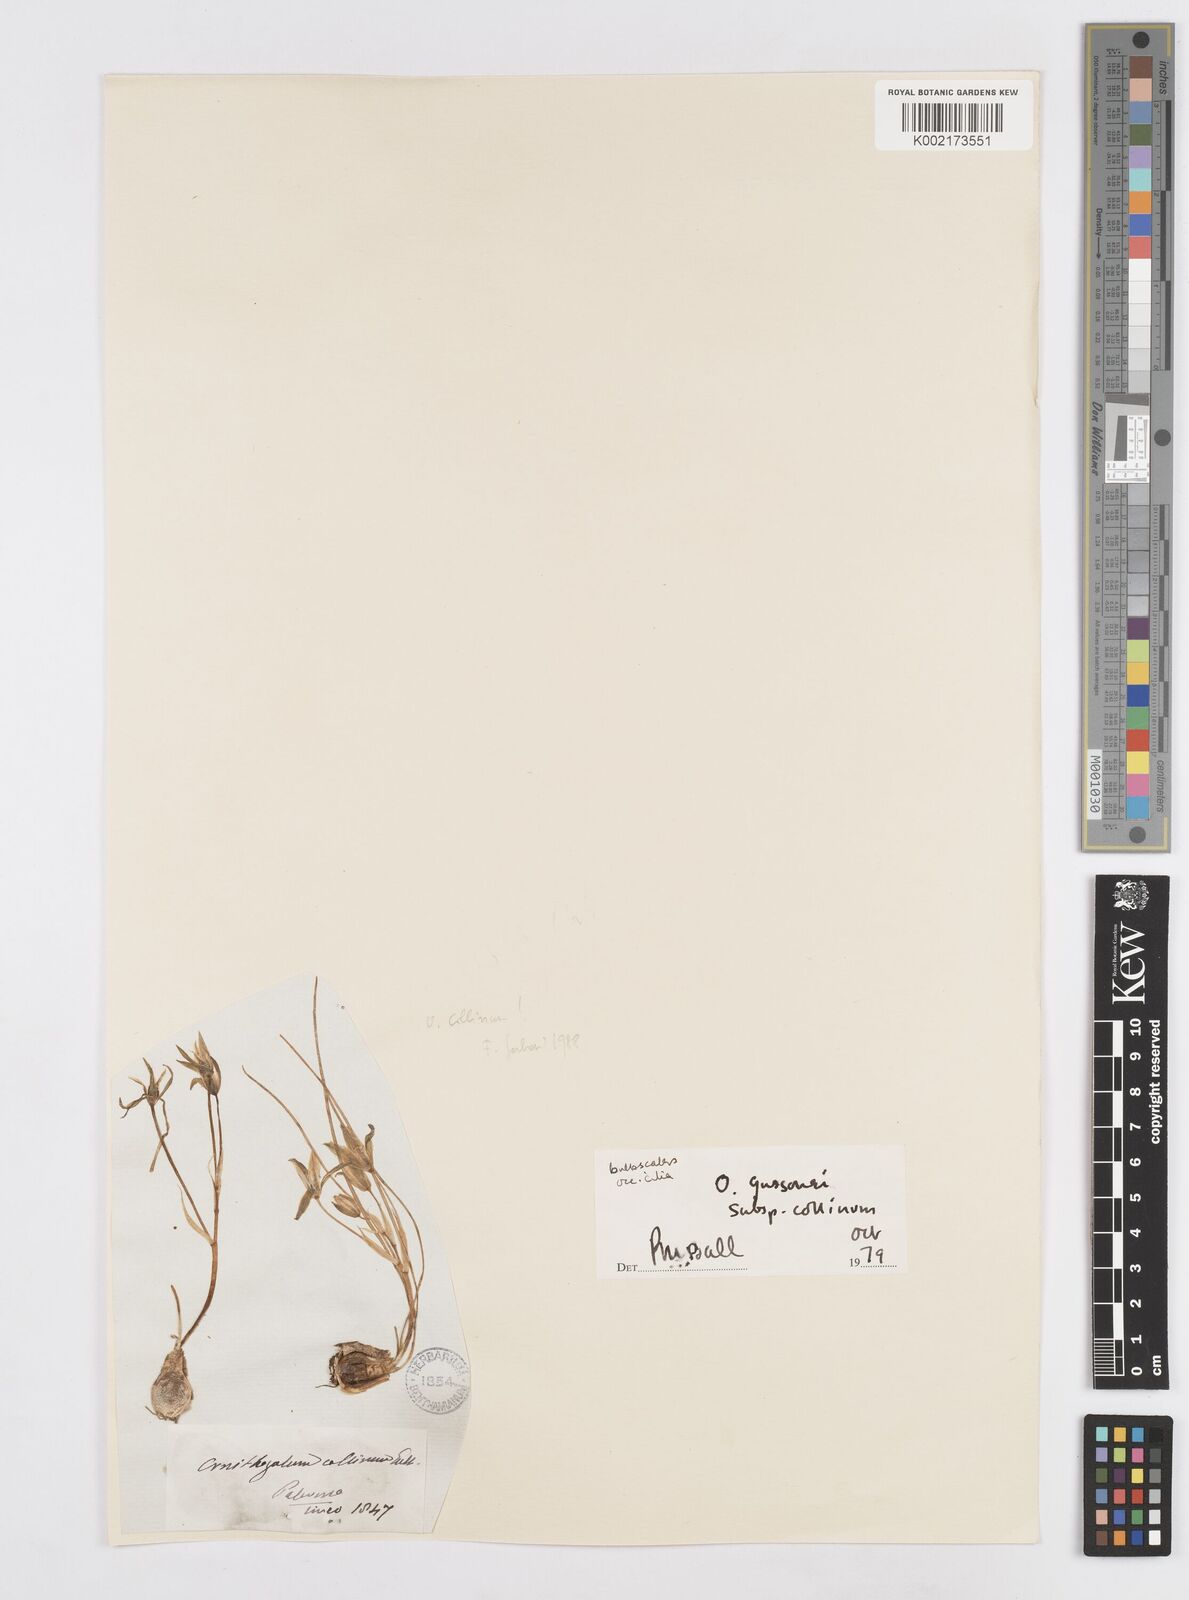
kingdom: Plantae
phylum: Tracheophyta
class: Liliopsida
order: Asparagales
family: Asparagaceae
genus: Ornithogalum
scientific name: Ornithogalum gussonei
